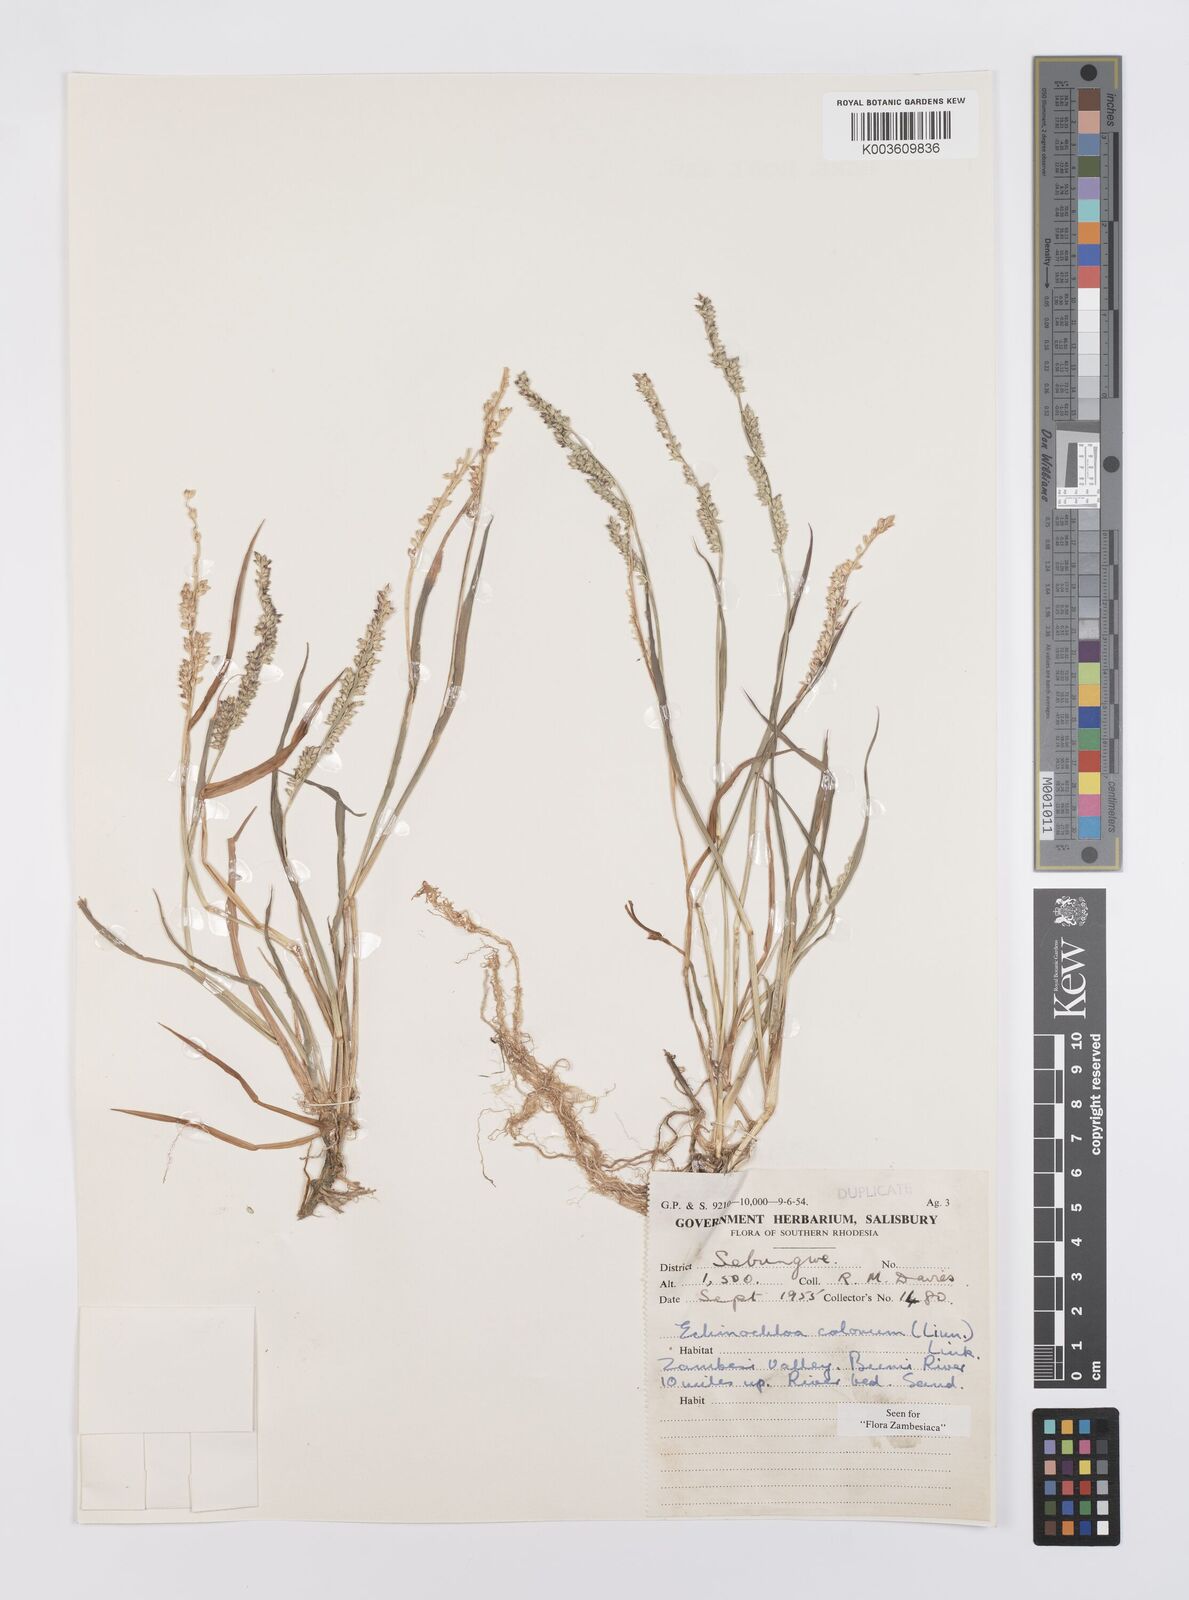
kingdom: Plantae
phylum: Tracheophyta
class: Liliopsida
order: Poales
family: Poaceae
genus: Echinochloa
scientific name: Echinochloa colonum
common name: Jungle rice
